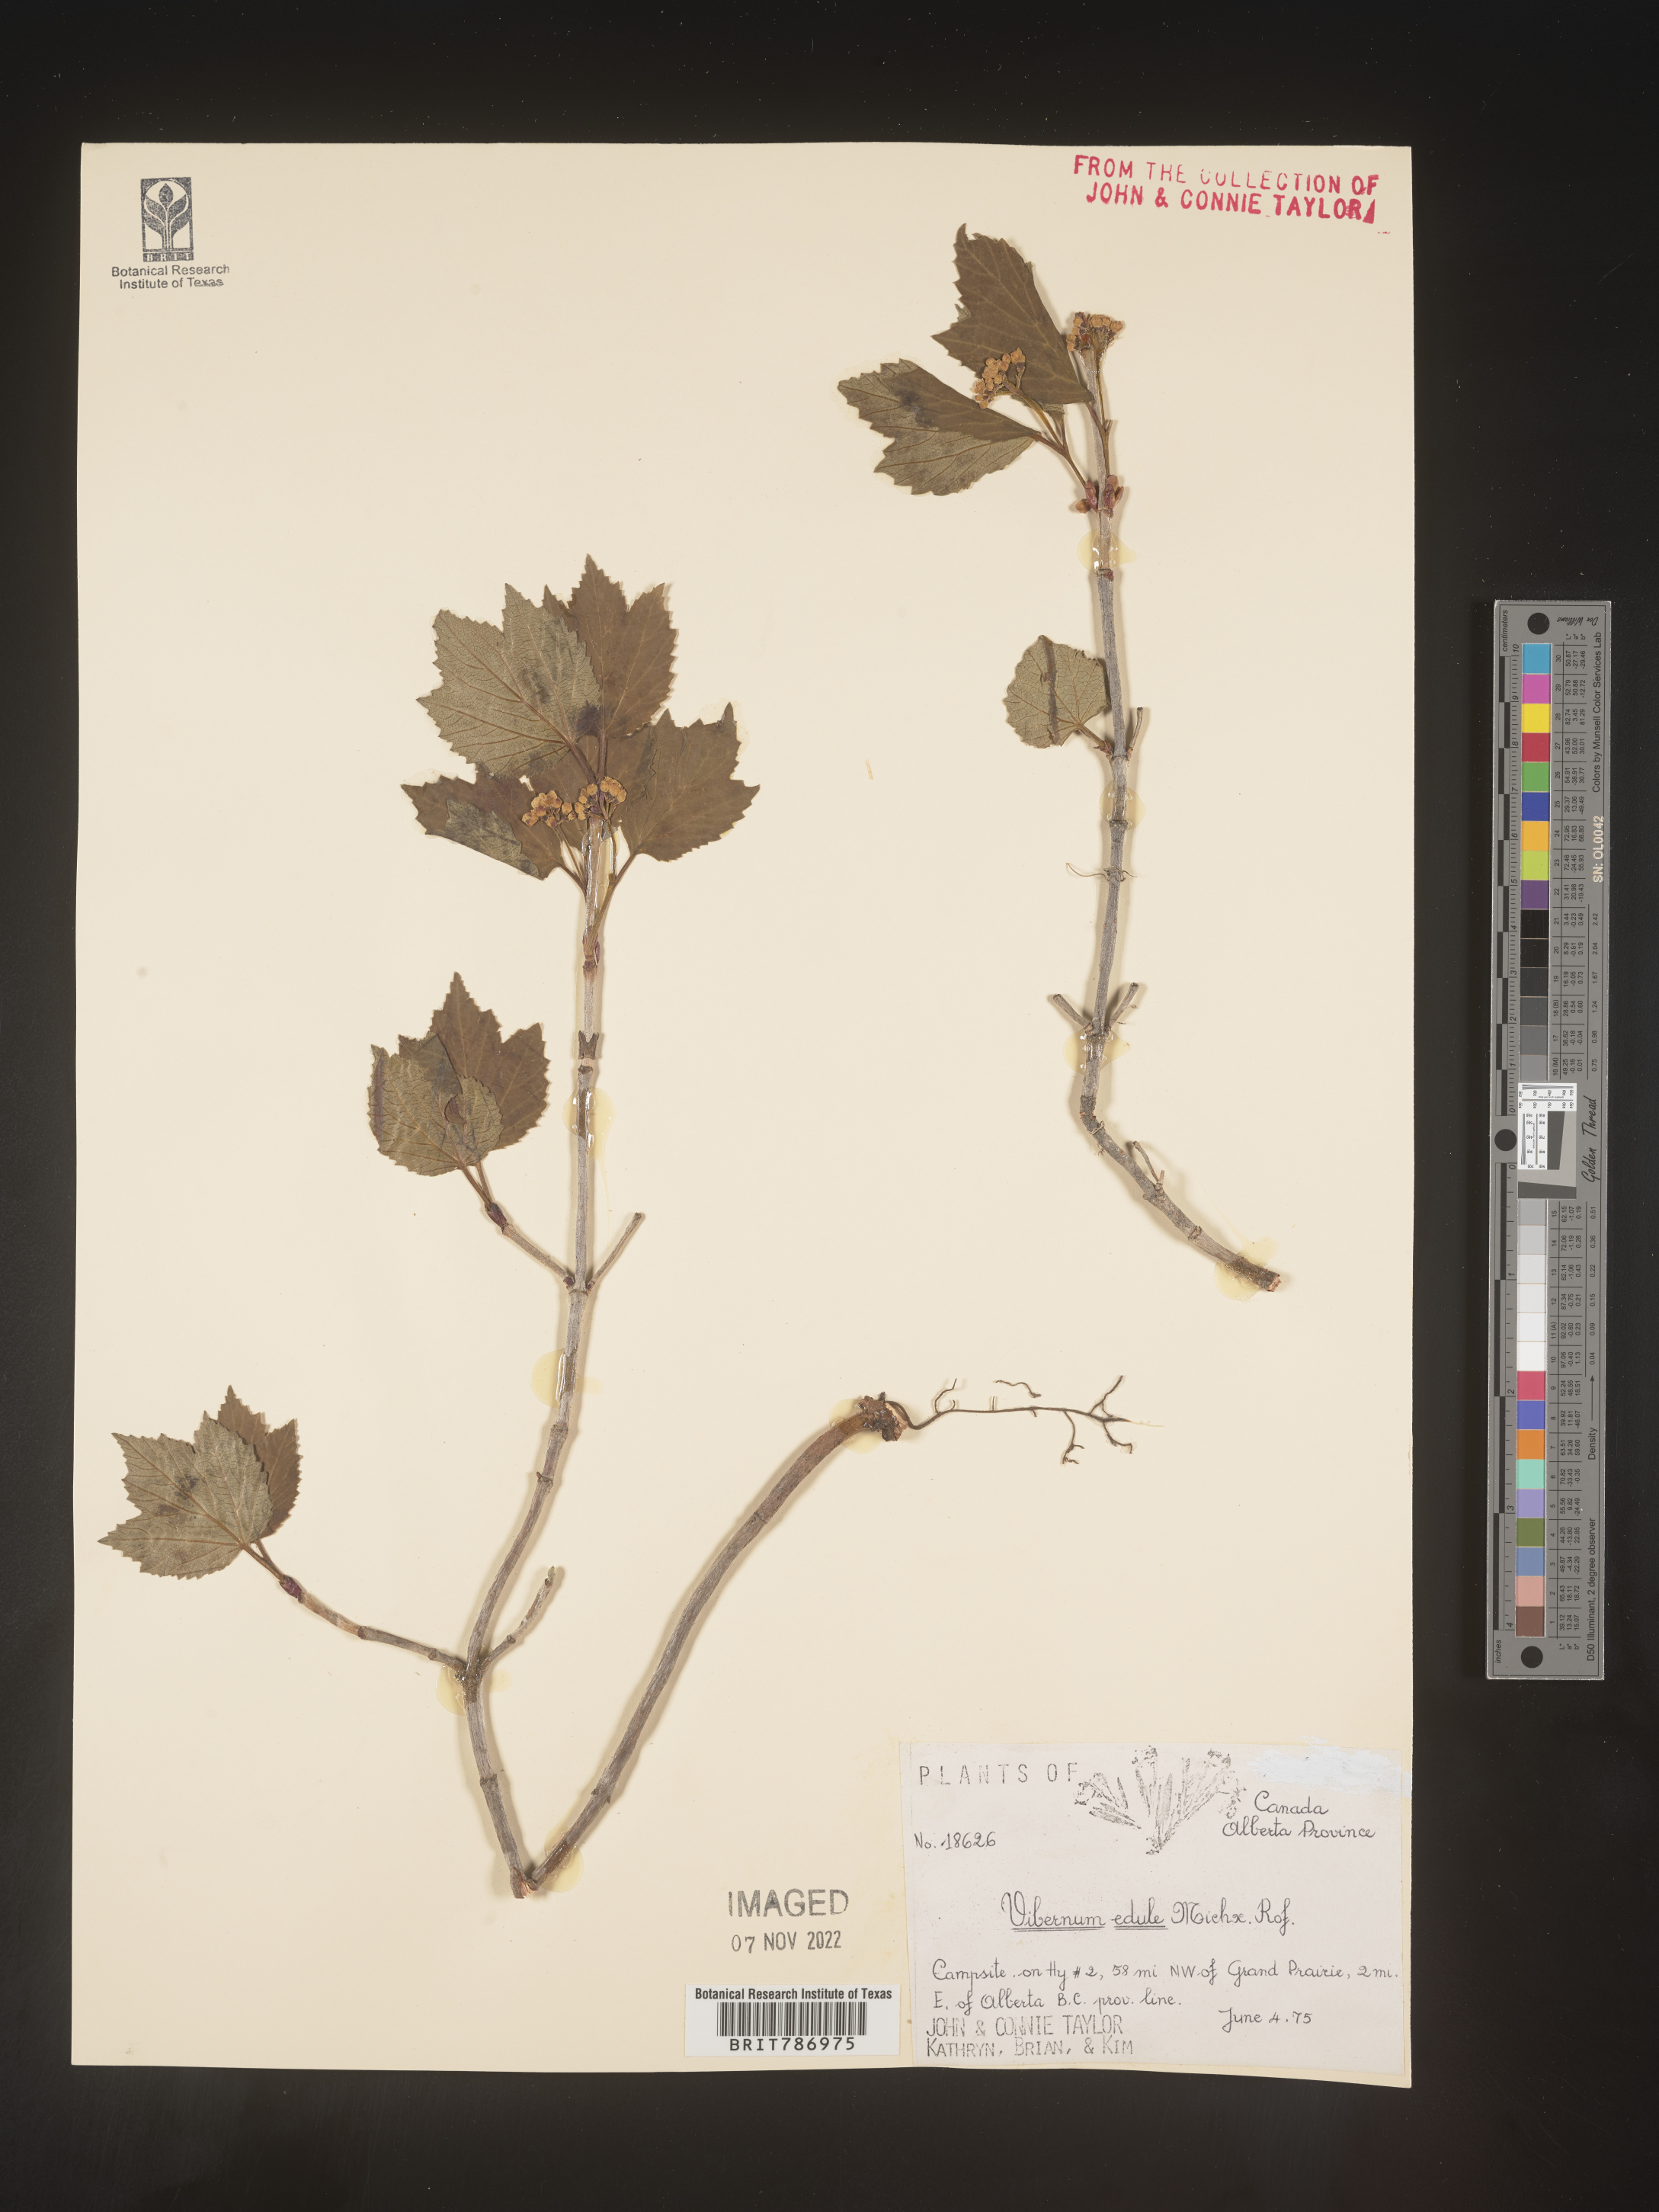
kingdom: Plantae
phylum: Tracheophyta
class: Magnoliopsida
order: Dipsacales
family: Viburnaceae
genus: Viburnum
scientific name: Viburnum edule
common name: Mooseberry
